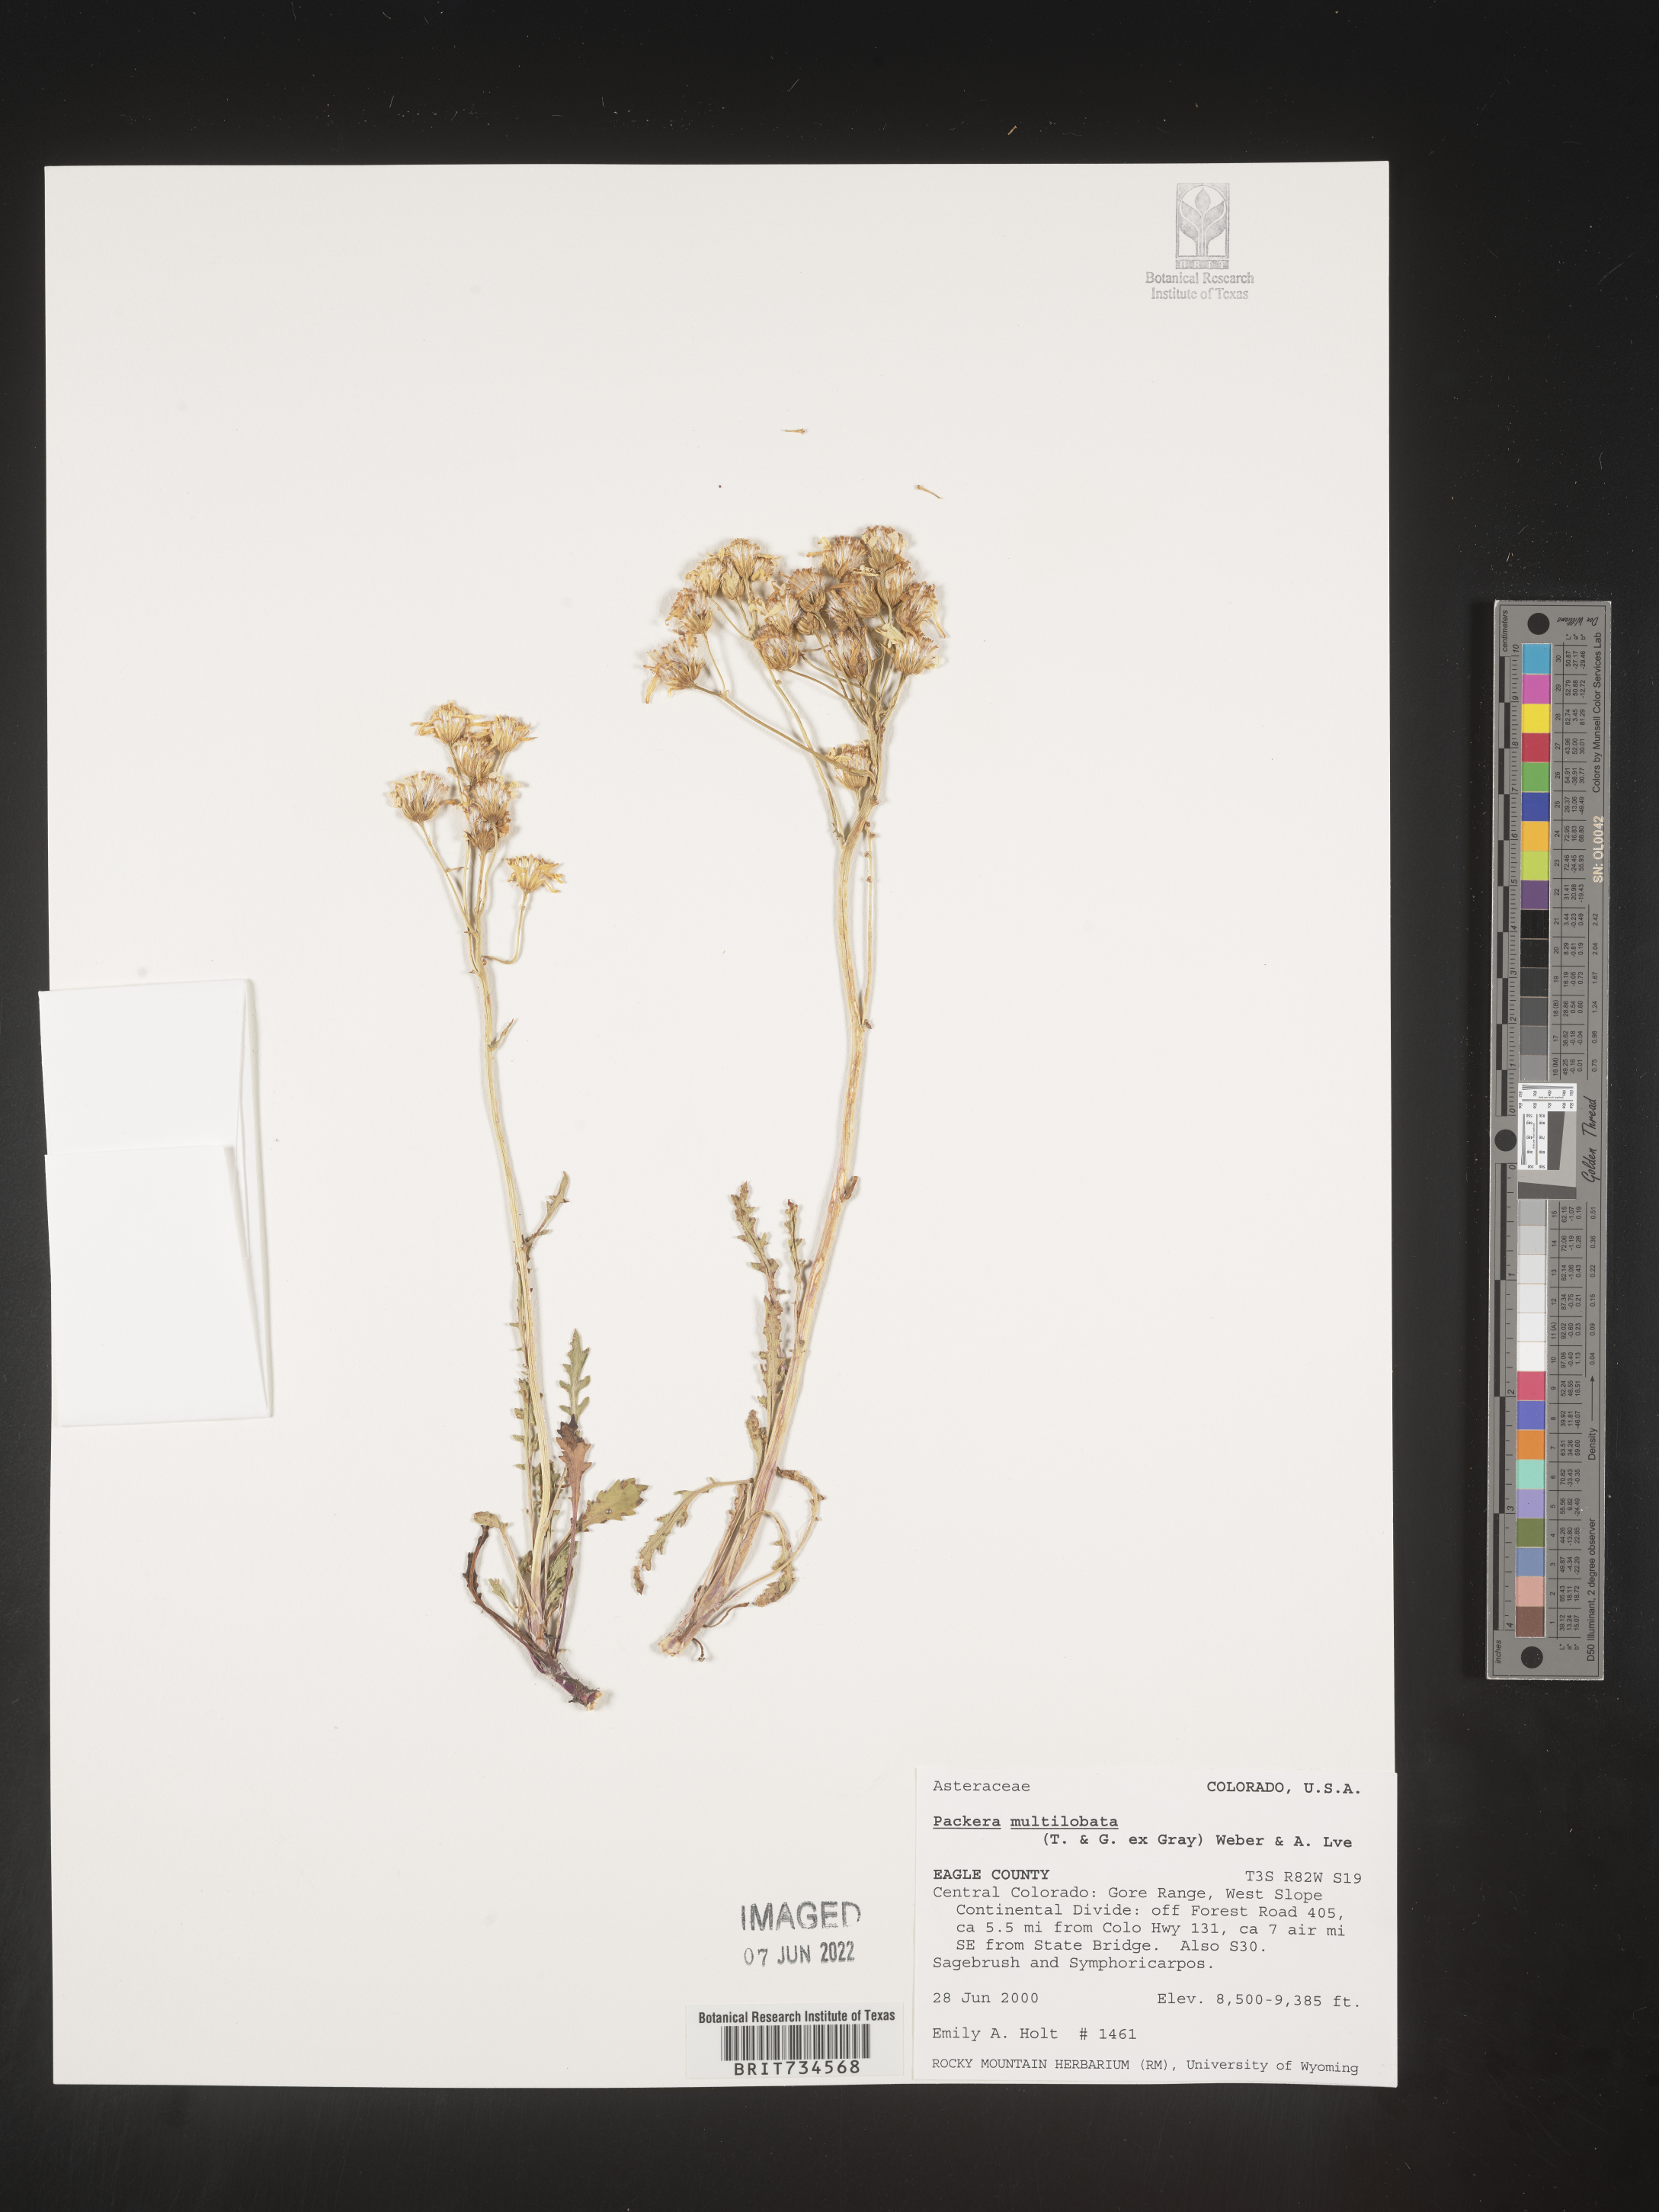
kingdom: Plantae
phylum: Tracheophyta
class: Magnoliopsida
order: Asterales
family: Asteraceae
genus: Packera
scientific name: Packera multilobata
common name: Lobe-leaf groundsel
